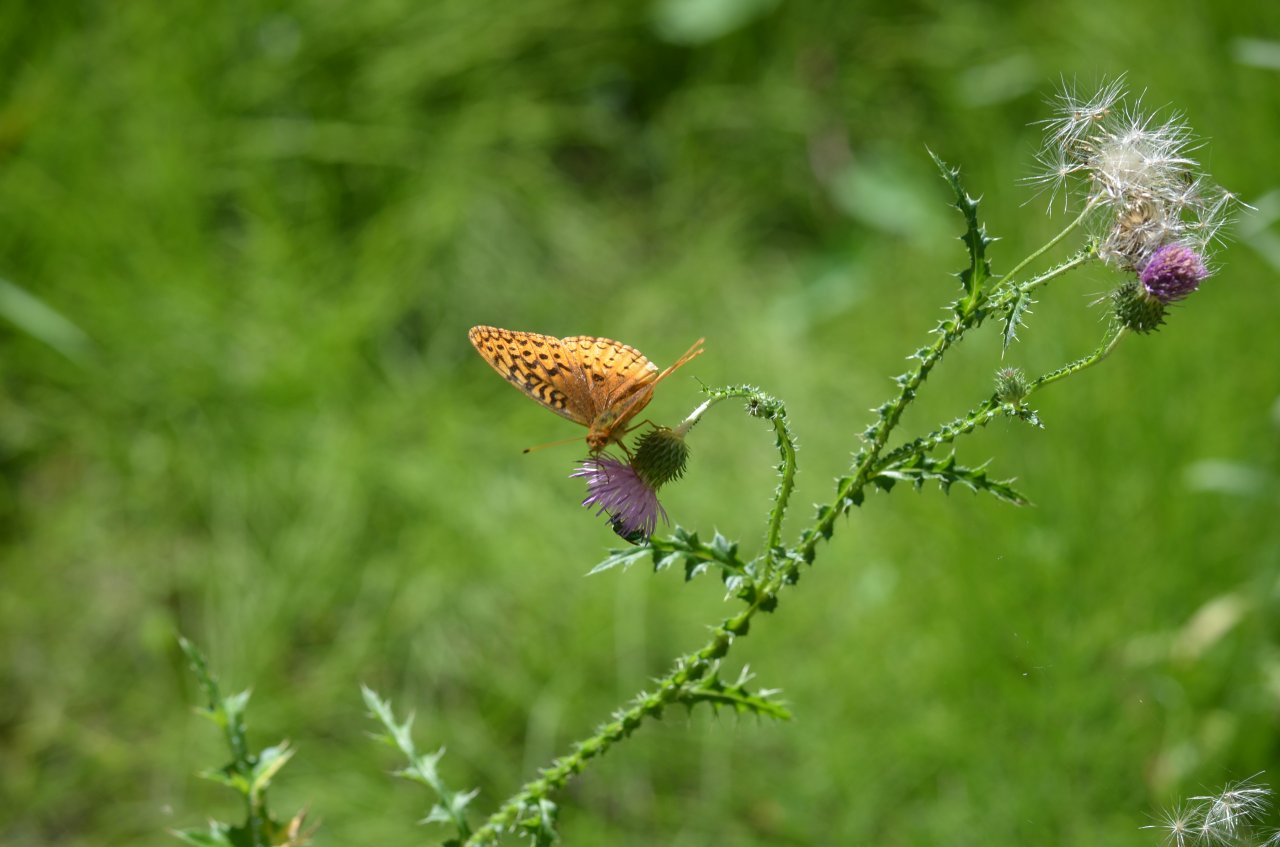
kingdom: Animalia
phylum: Arthropoda
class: Insecta
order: Lepidoptera
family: Nymphalidae
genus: Speyeria
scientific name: Speyeria cybele
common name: Great Spangled Fritillary
